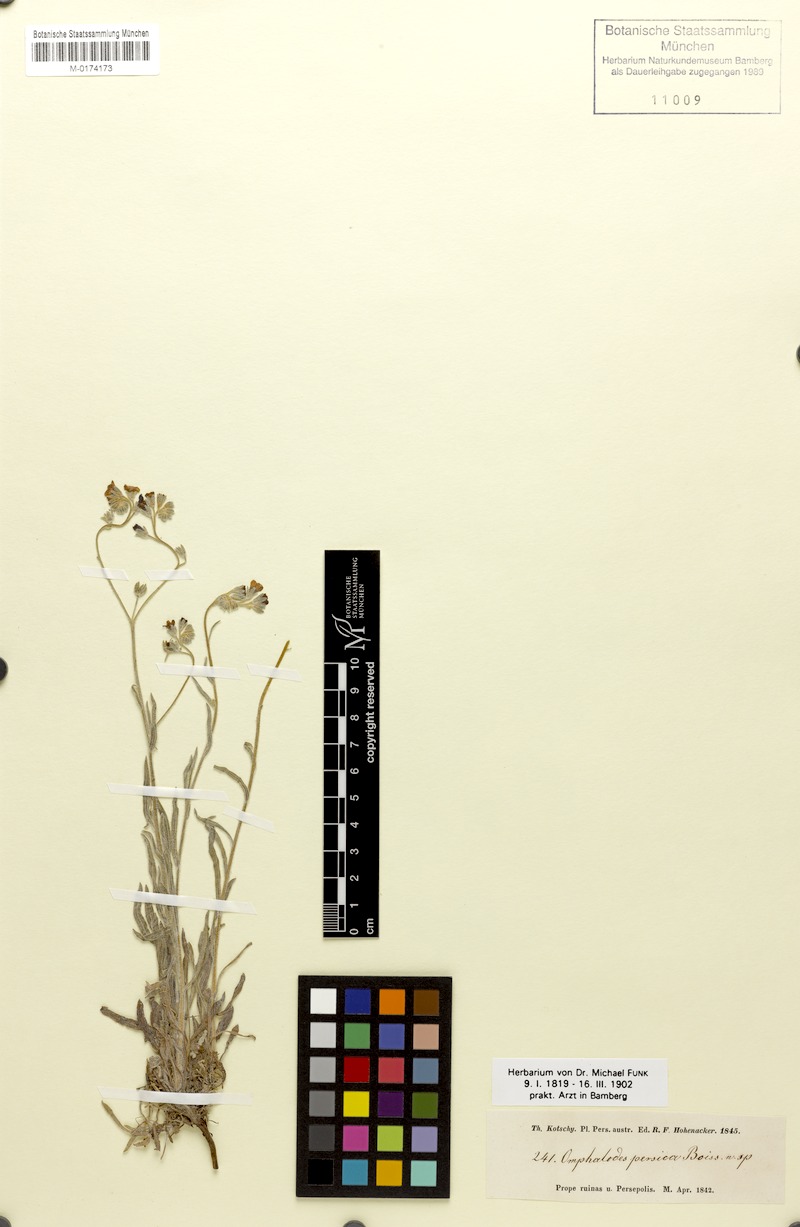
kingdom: Plantae
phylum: Tracheophyta
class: Magnoliopsida
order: Boraginales
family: Boraginaceae
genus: Paracaryum
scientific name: Paracaryum persicum
